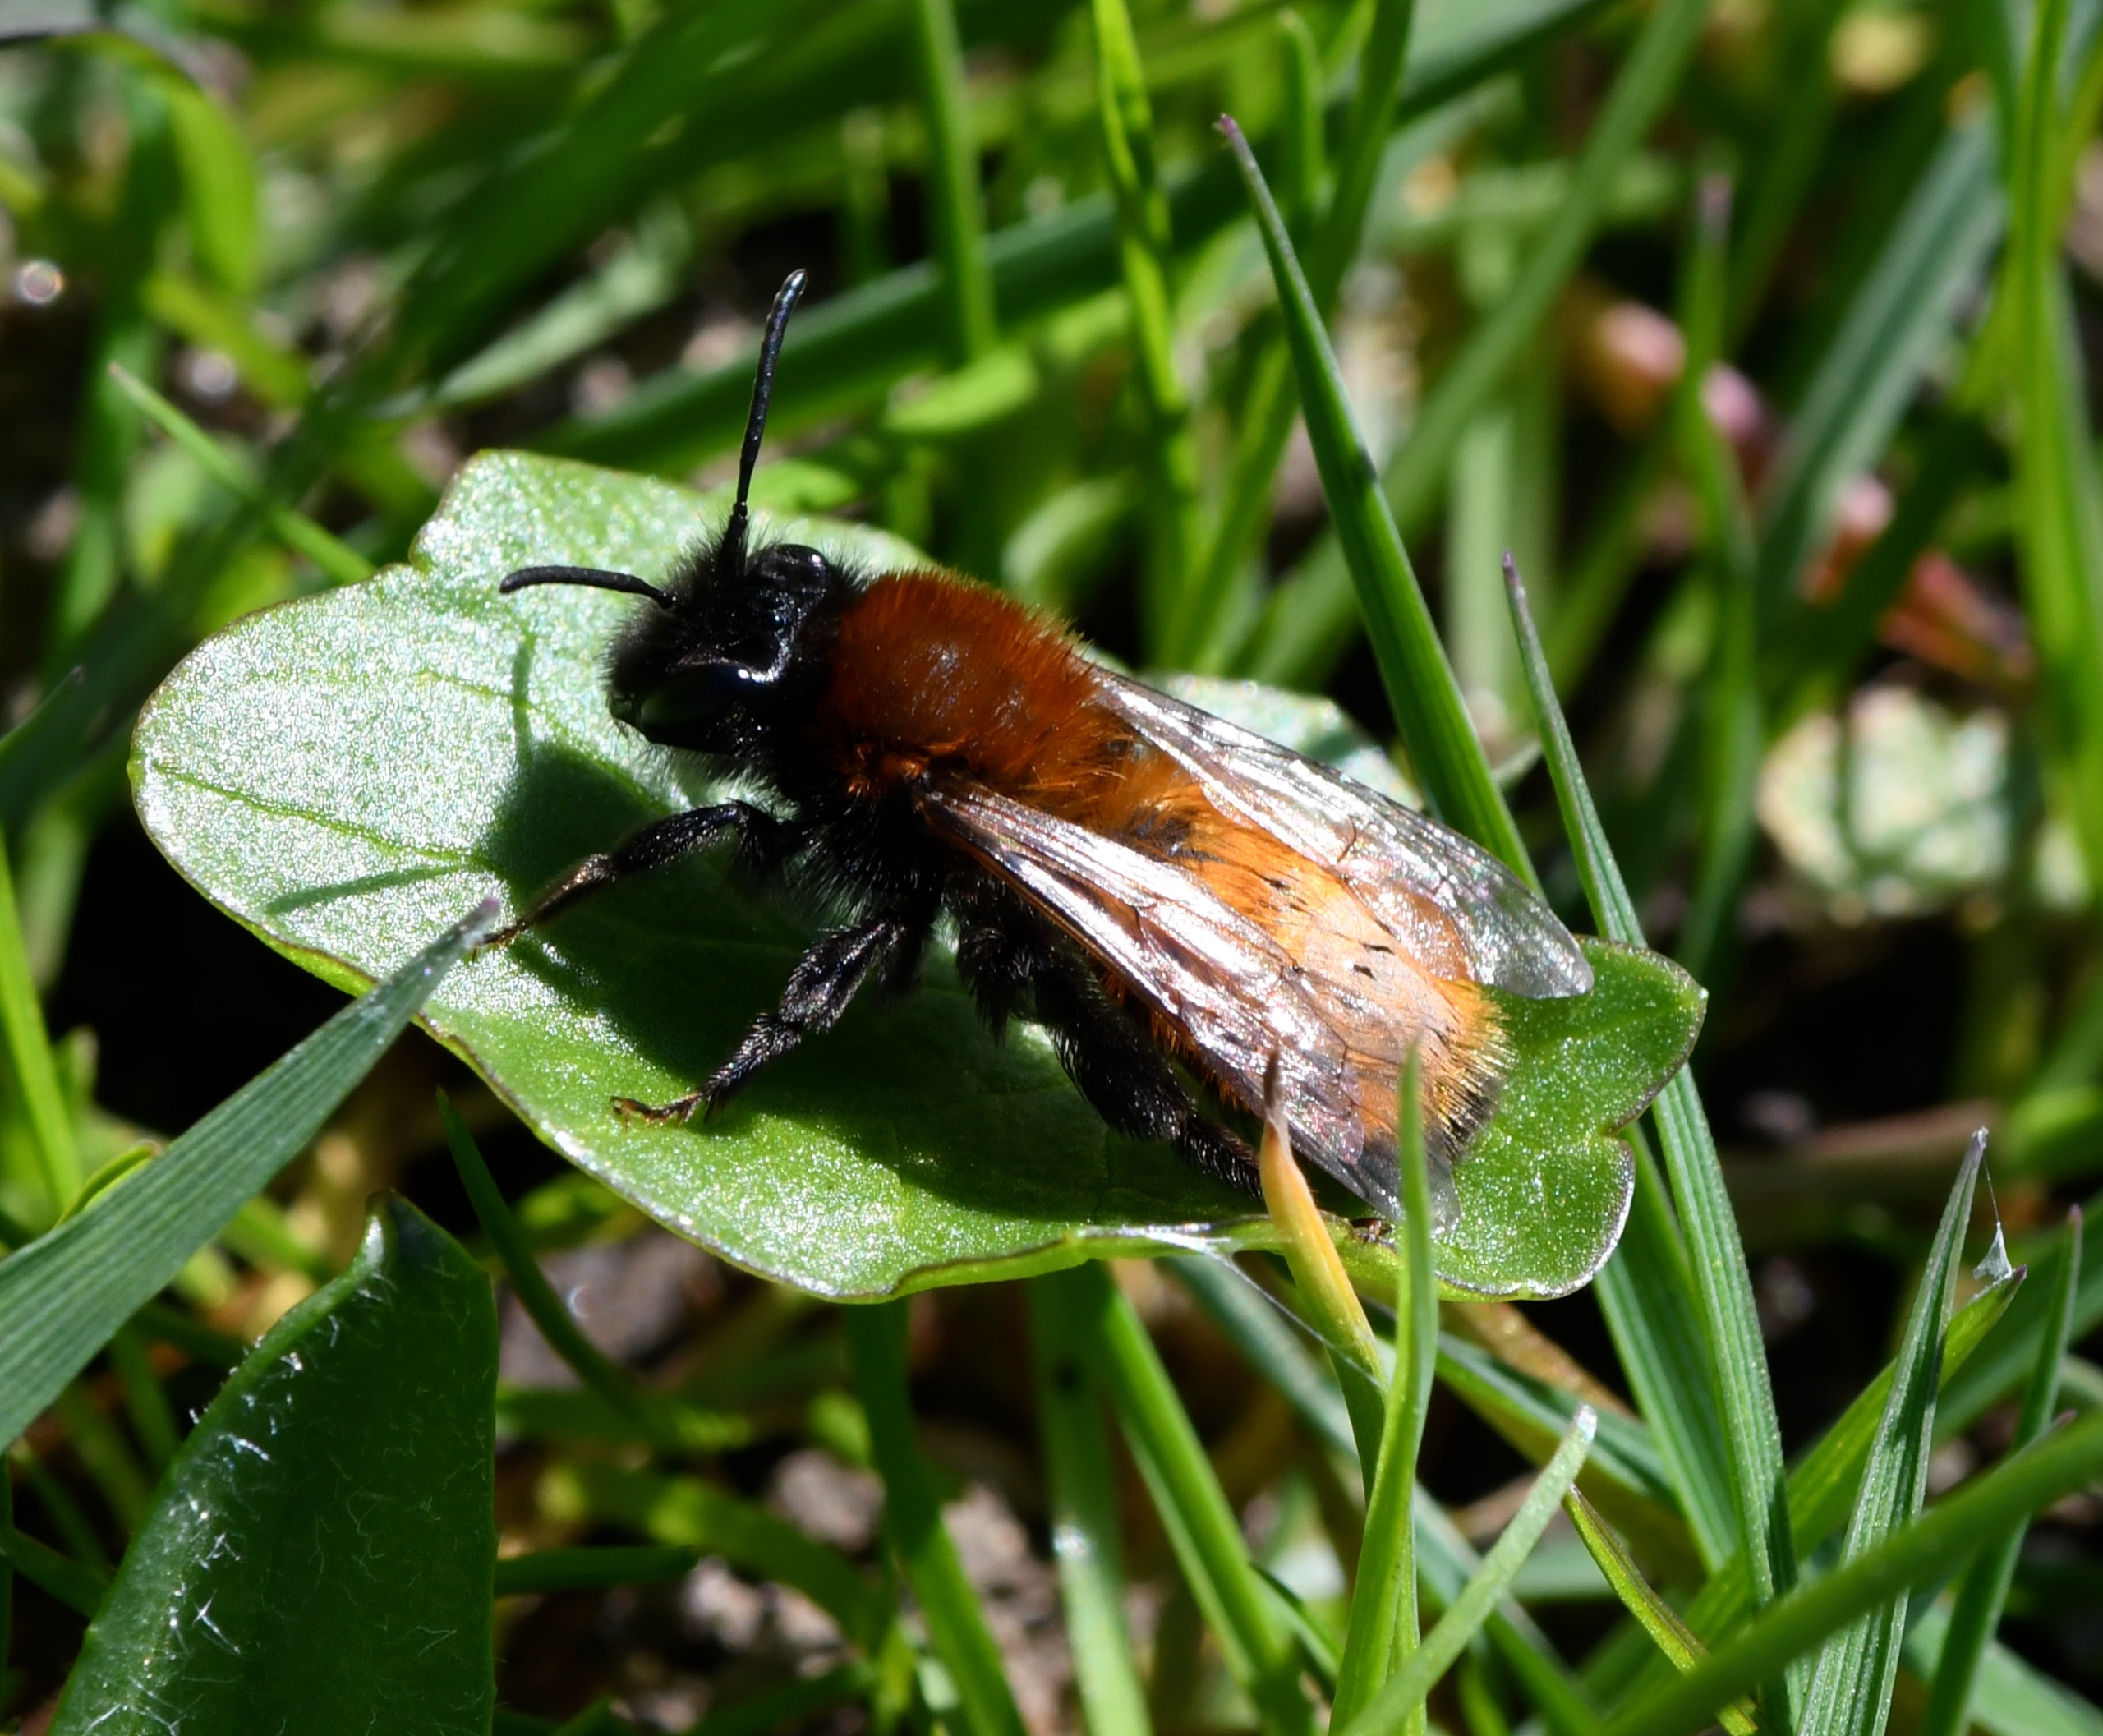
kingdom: Animalia
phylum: Arthropoda
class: Insecta
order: Hymenoptera
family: Andrenidae
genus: Andrena
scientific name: Andrena fulva
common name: Rødpelset jordbi
